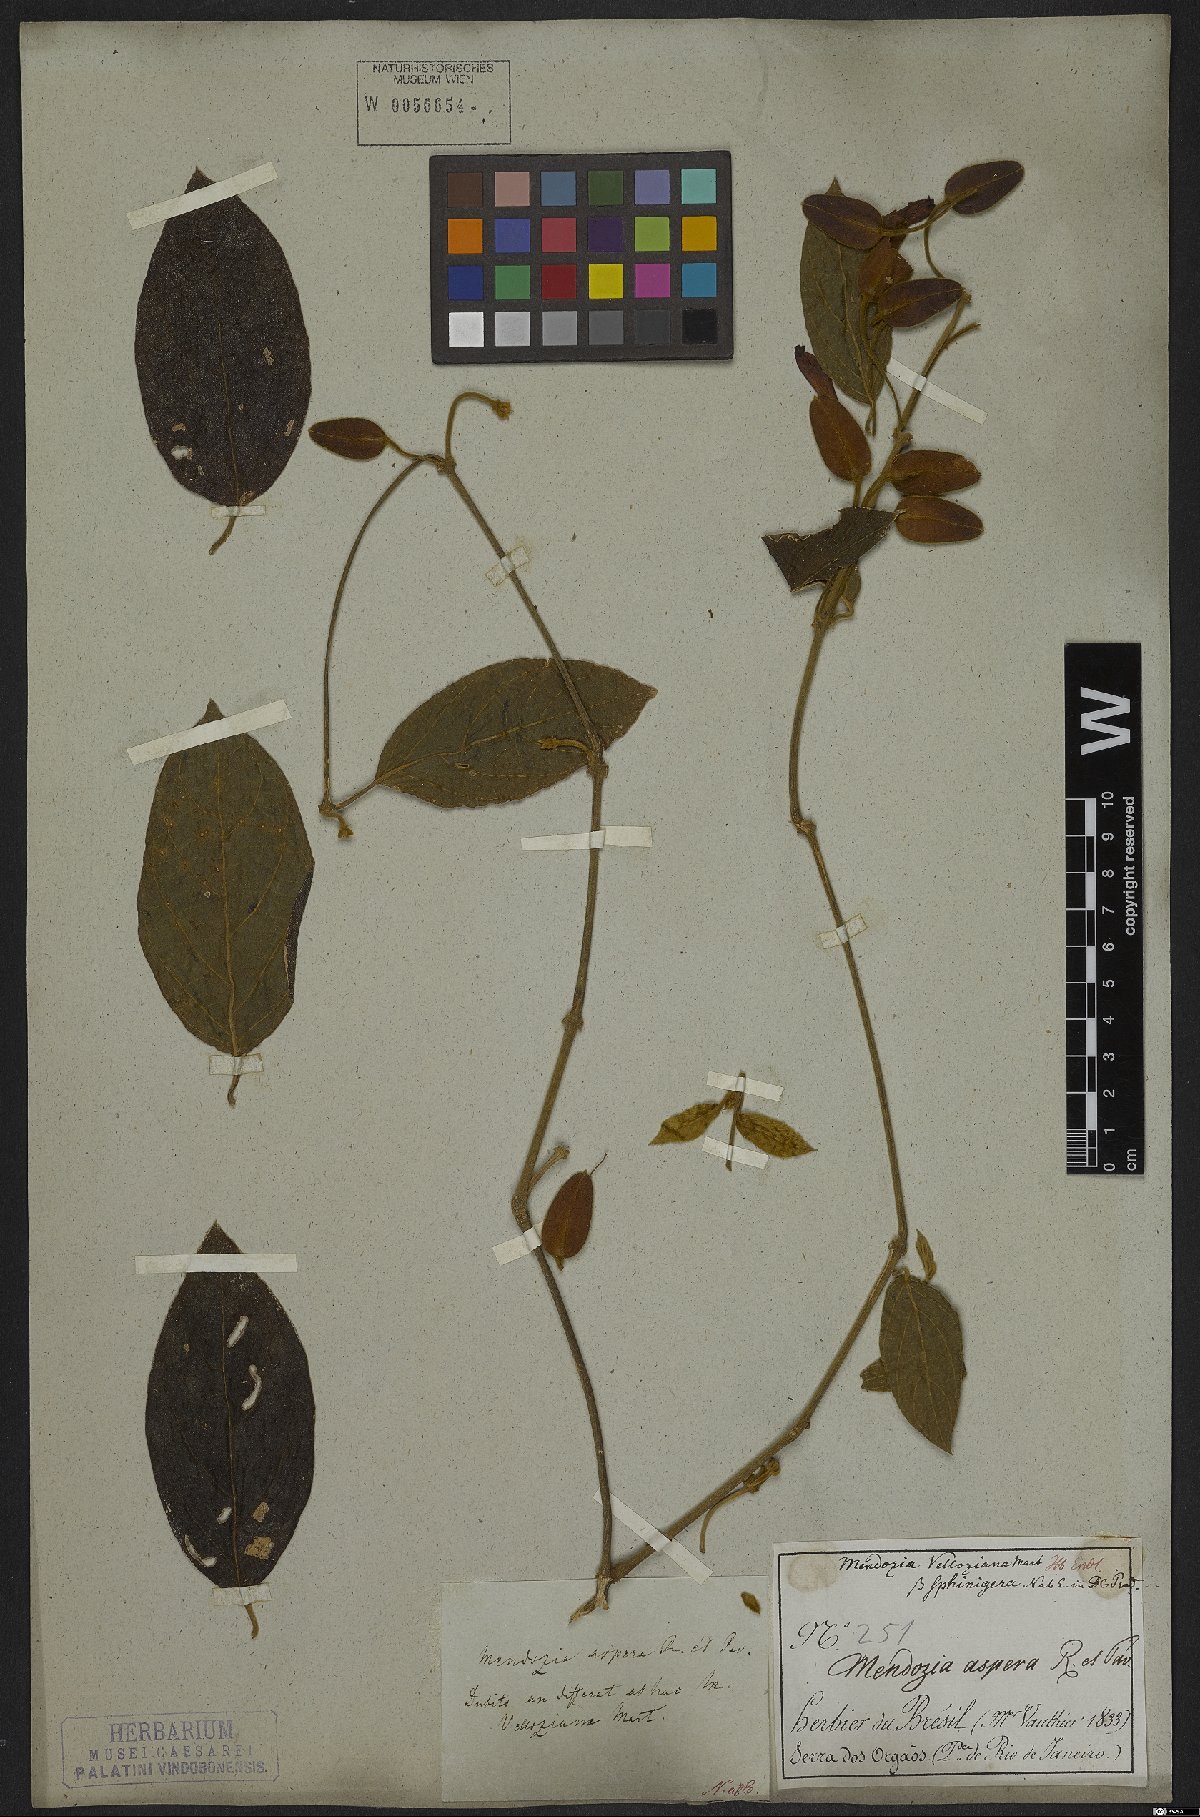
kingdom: Plantae
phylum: Tracheophyta
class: Magnoliopsida
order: Lamiales
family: Acanthaceae
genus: Mendoncia
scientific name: Mendoncia aspera
